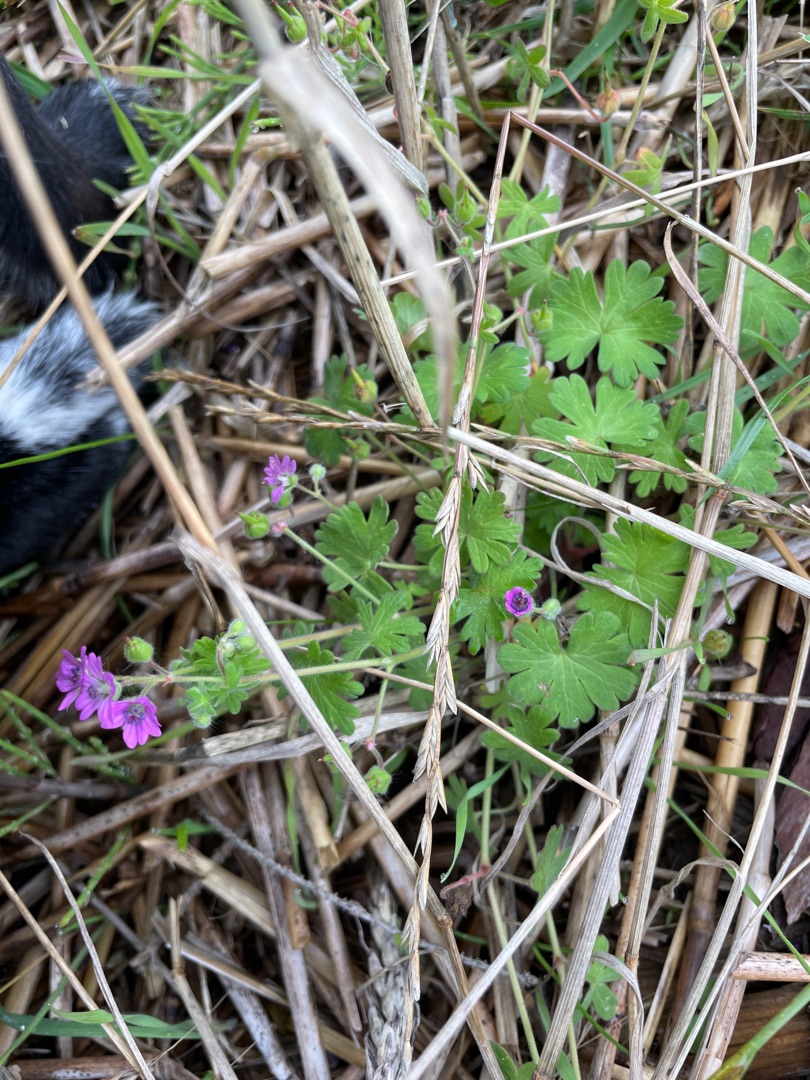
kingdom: Plantae
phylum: Tracheophyta
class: Magnoliopsida
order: Geraniales
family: Geraniaceae
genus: Geranium
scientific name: Geranium molle
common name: Blød storkenæb
